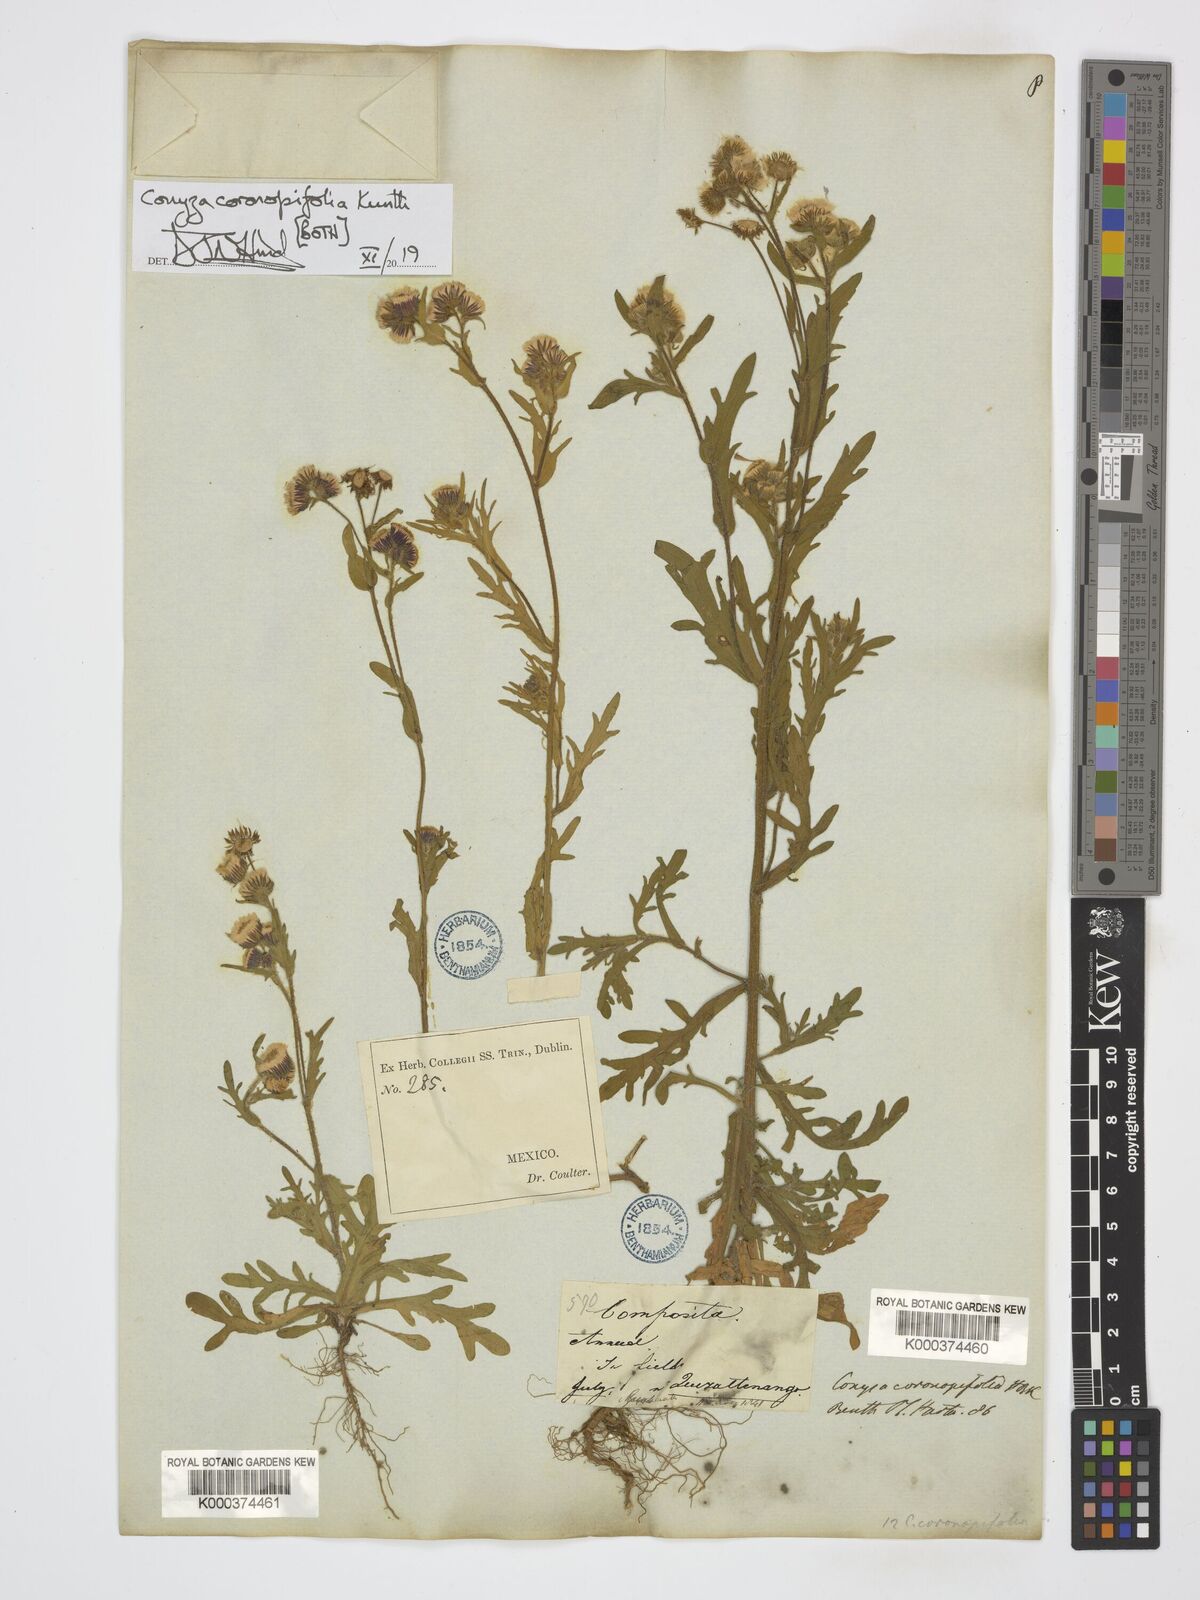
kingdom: Plantae
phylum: Tracheophyta
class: Magnoliopsida
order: Asterales
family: Asteraceae
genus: Erigeron
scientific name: Erigeron variifolius
